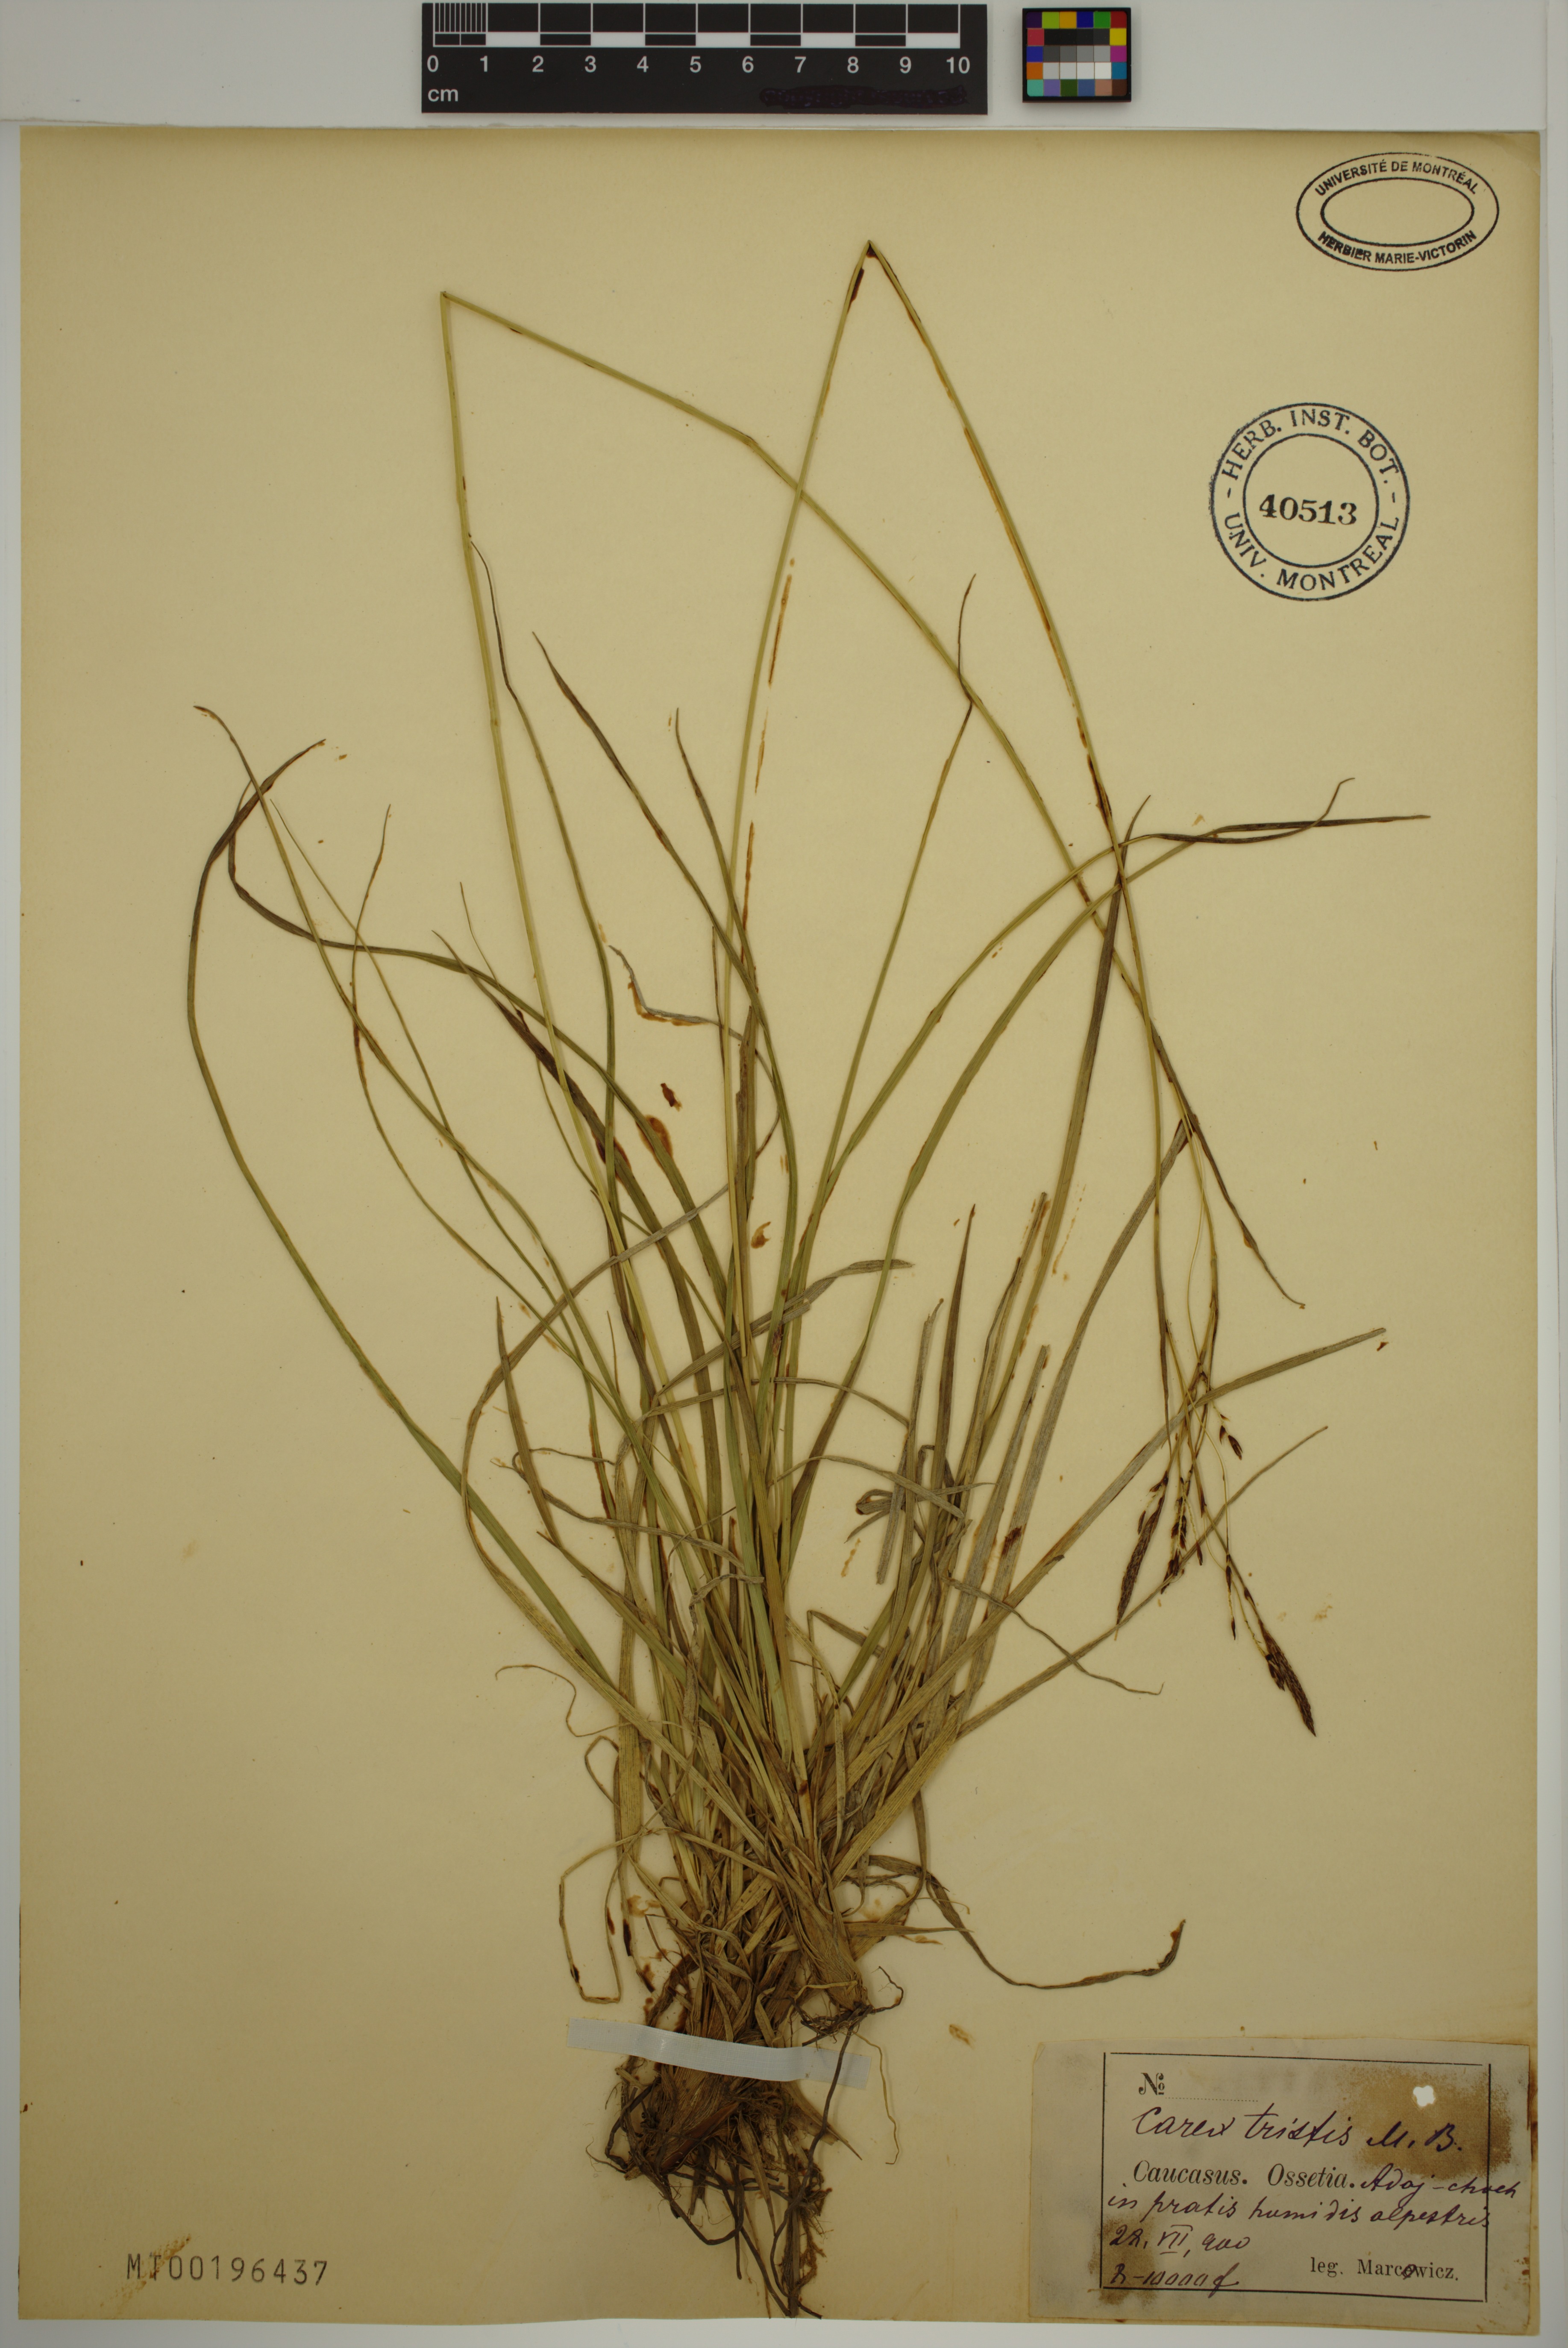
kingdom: Plantae
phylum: Tracheophyta
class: Liliopsida
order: Poales
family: Cyperaceae
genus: Carex
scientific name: Carex tristis
